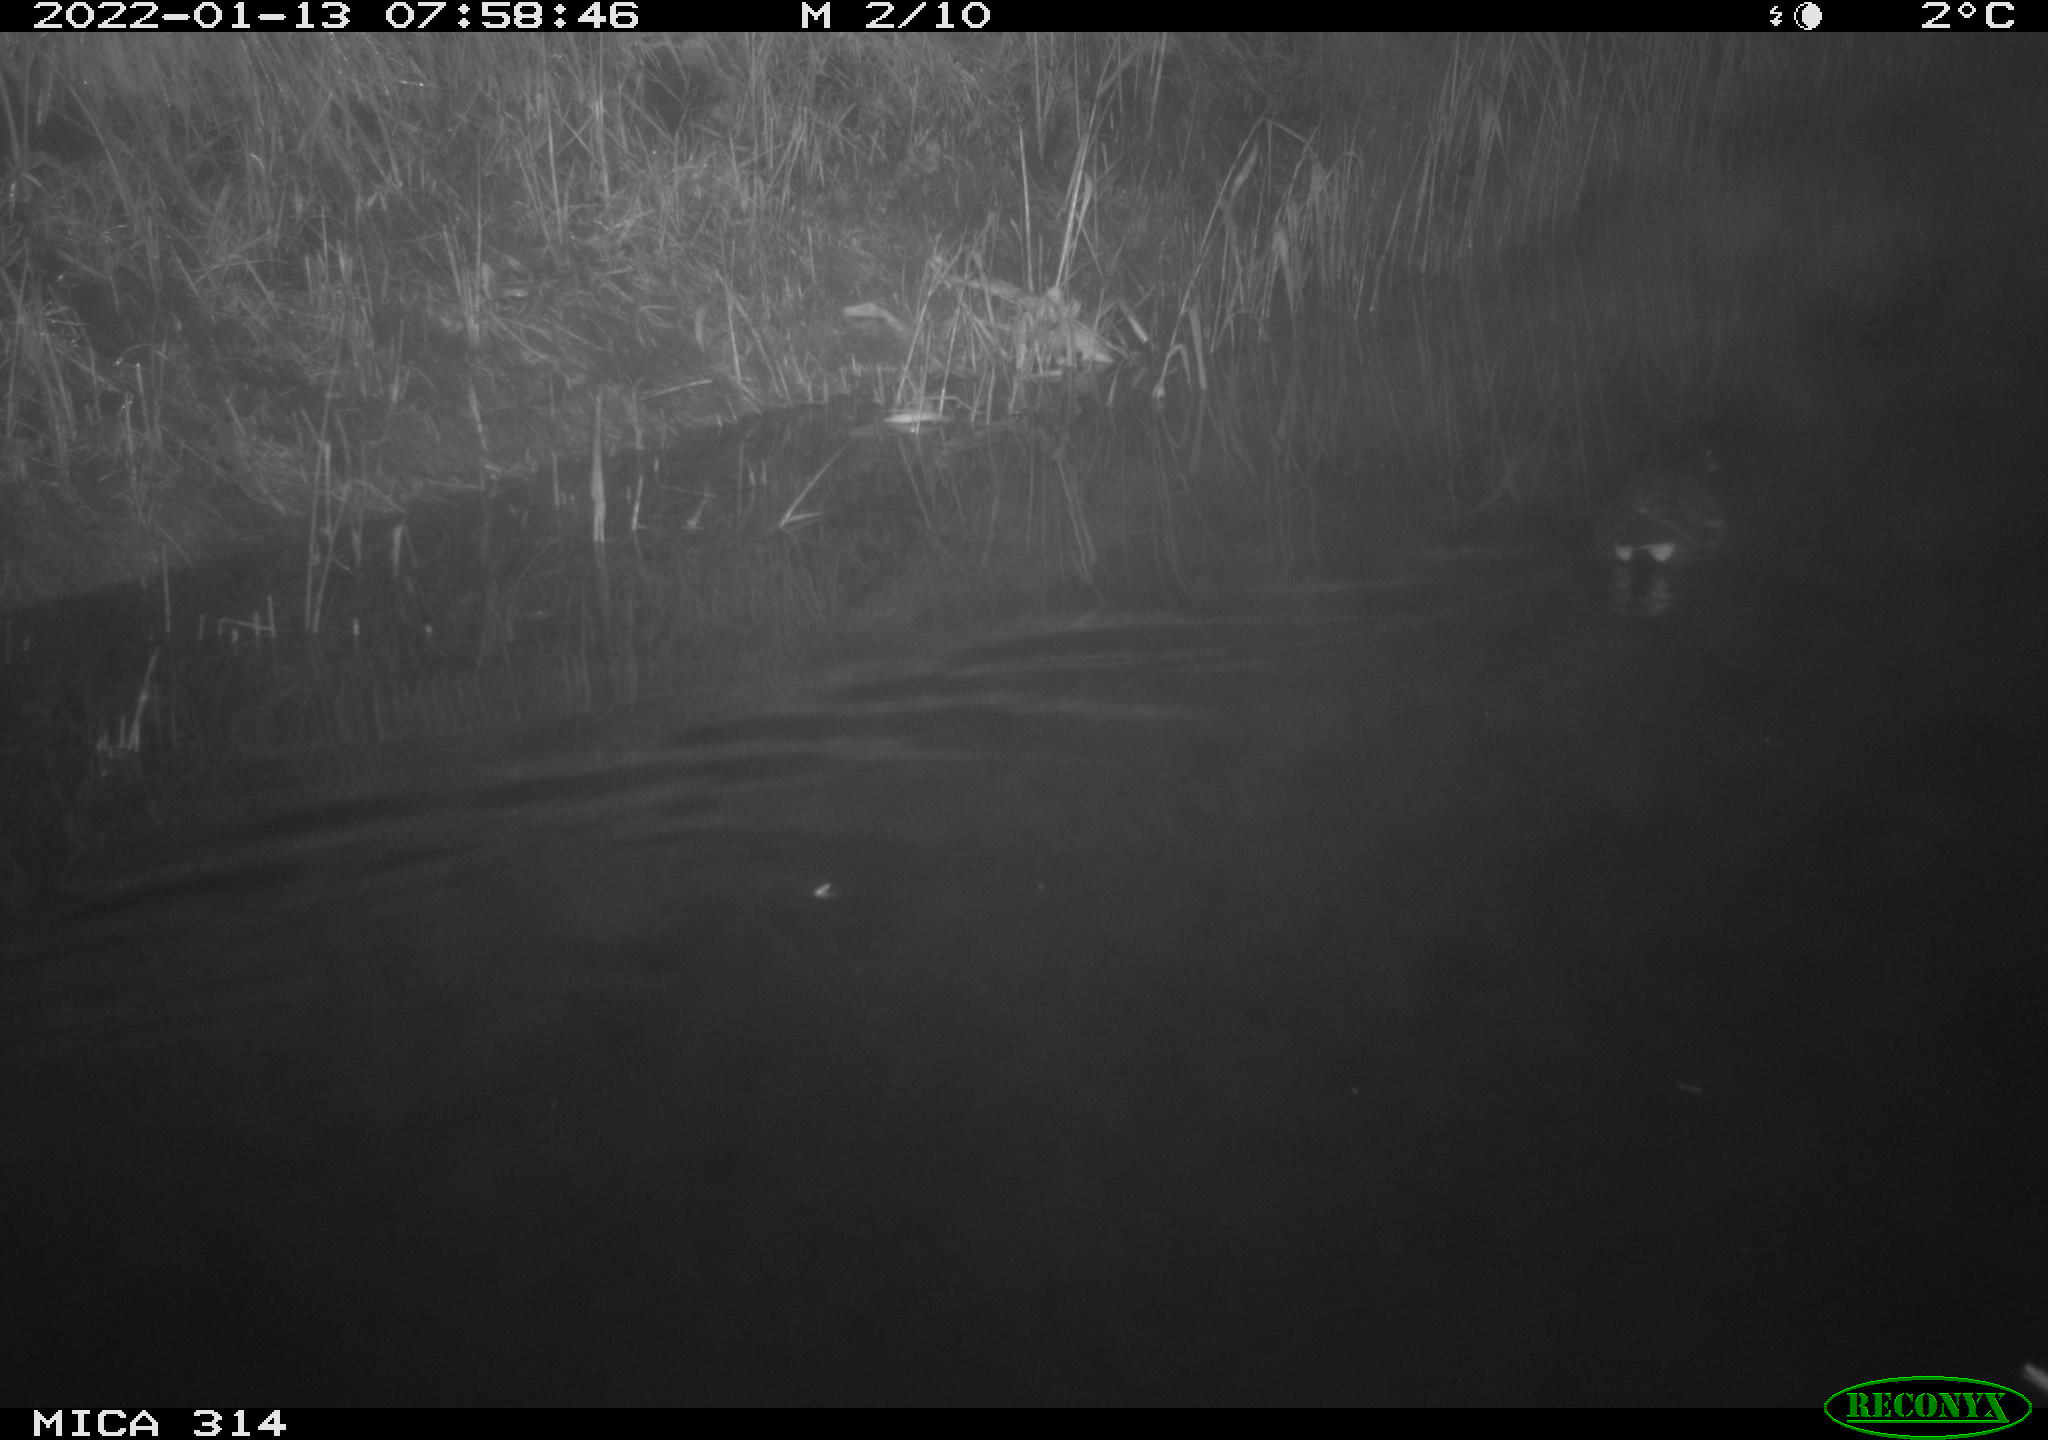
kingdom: Animalia
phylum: Chordata
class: Aves
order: Gruiformes
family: Rallidae
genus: Gallinula
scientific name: Gallinula chloropus
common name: Common moorhen
